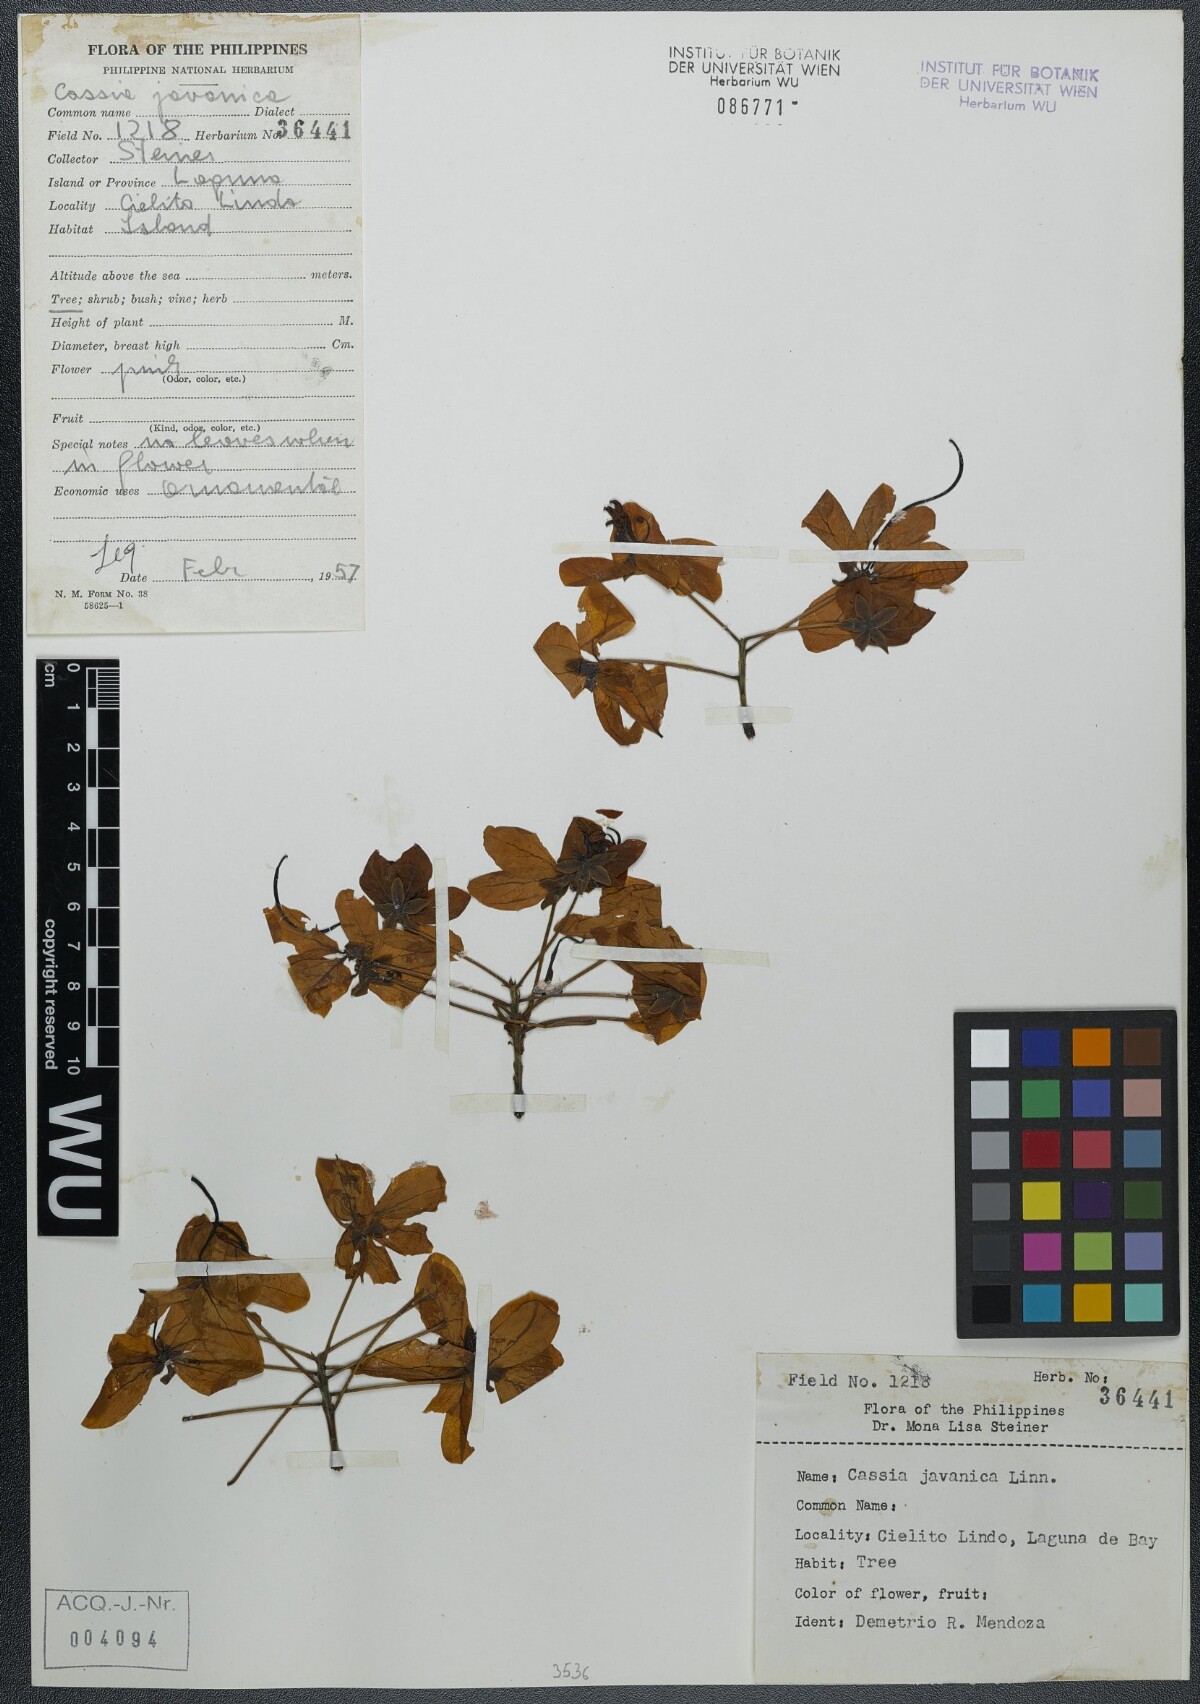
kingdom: Plantae
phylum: Tracheophyta
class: Magnoliopsida
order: Fabales
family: Fabaceae
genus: Cassia
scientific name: Cassia javanica
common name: Apple blossom
